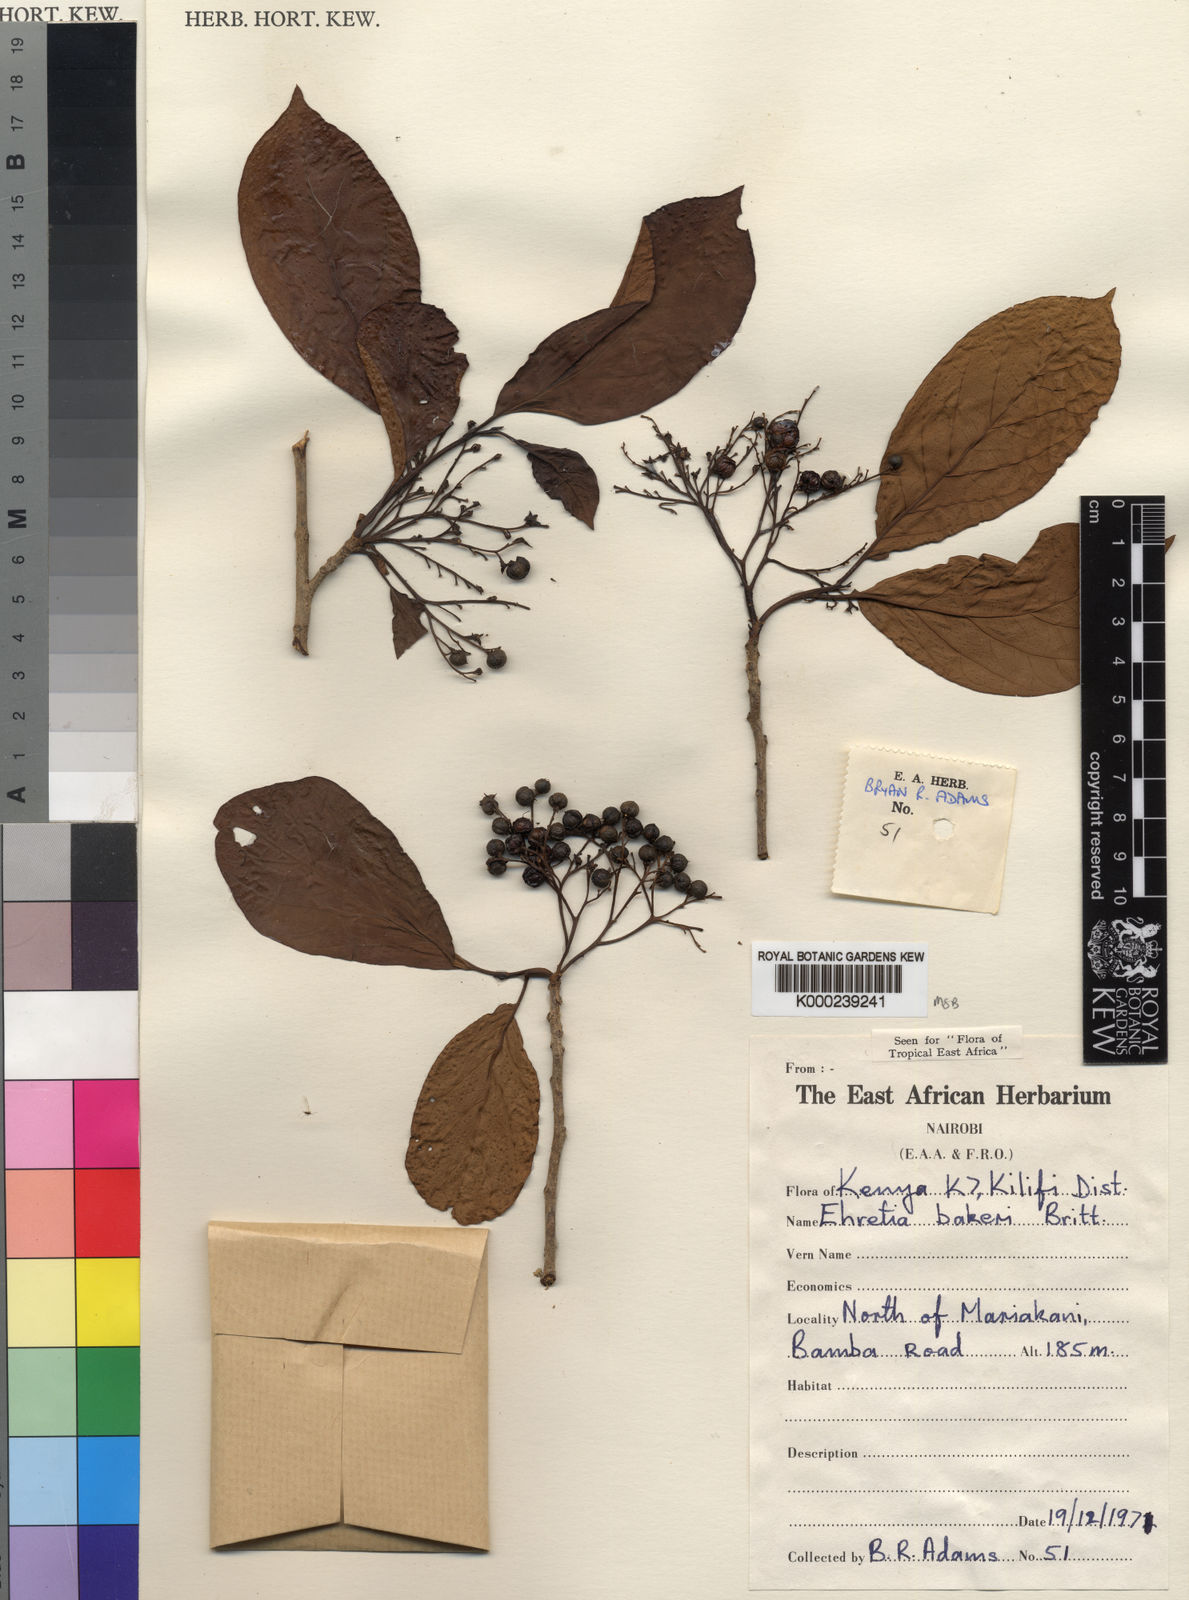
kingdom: Plantae
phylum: Tracheophyta
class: Magnoliopsida
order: Boraginales
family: Ehretiaceae
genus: Ehretia
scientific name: Ehretia
